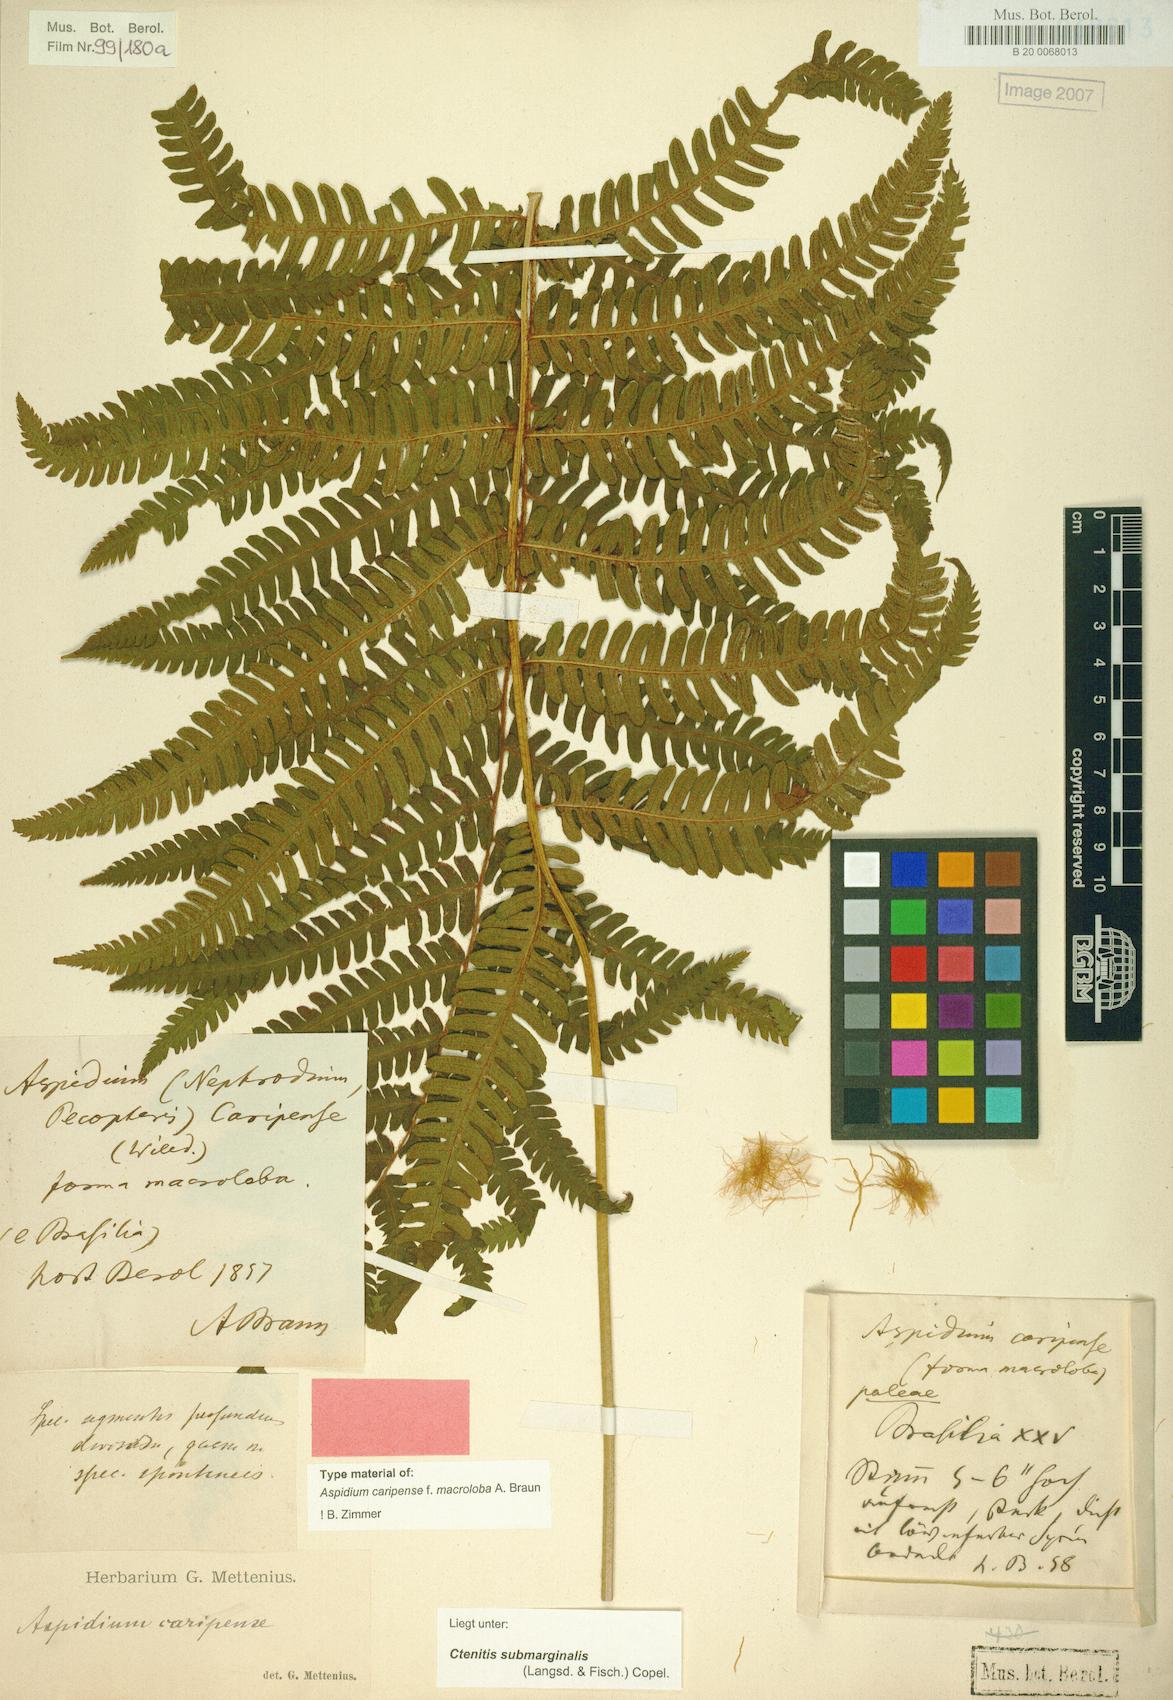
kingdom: Plantae
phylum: Tracheophyta
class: Polypodiopsida
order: Polypodiales
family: Dryopteridaceae
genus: Ctenitis
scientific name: Ctenitis submarginalis
